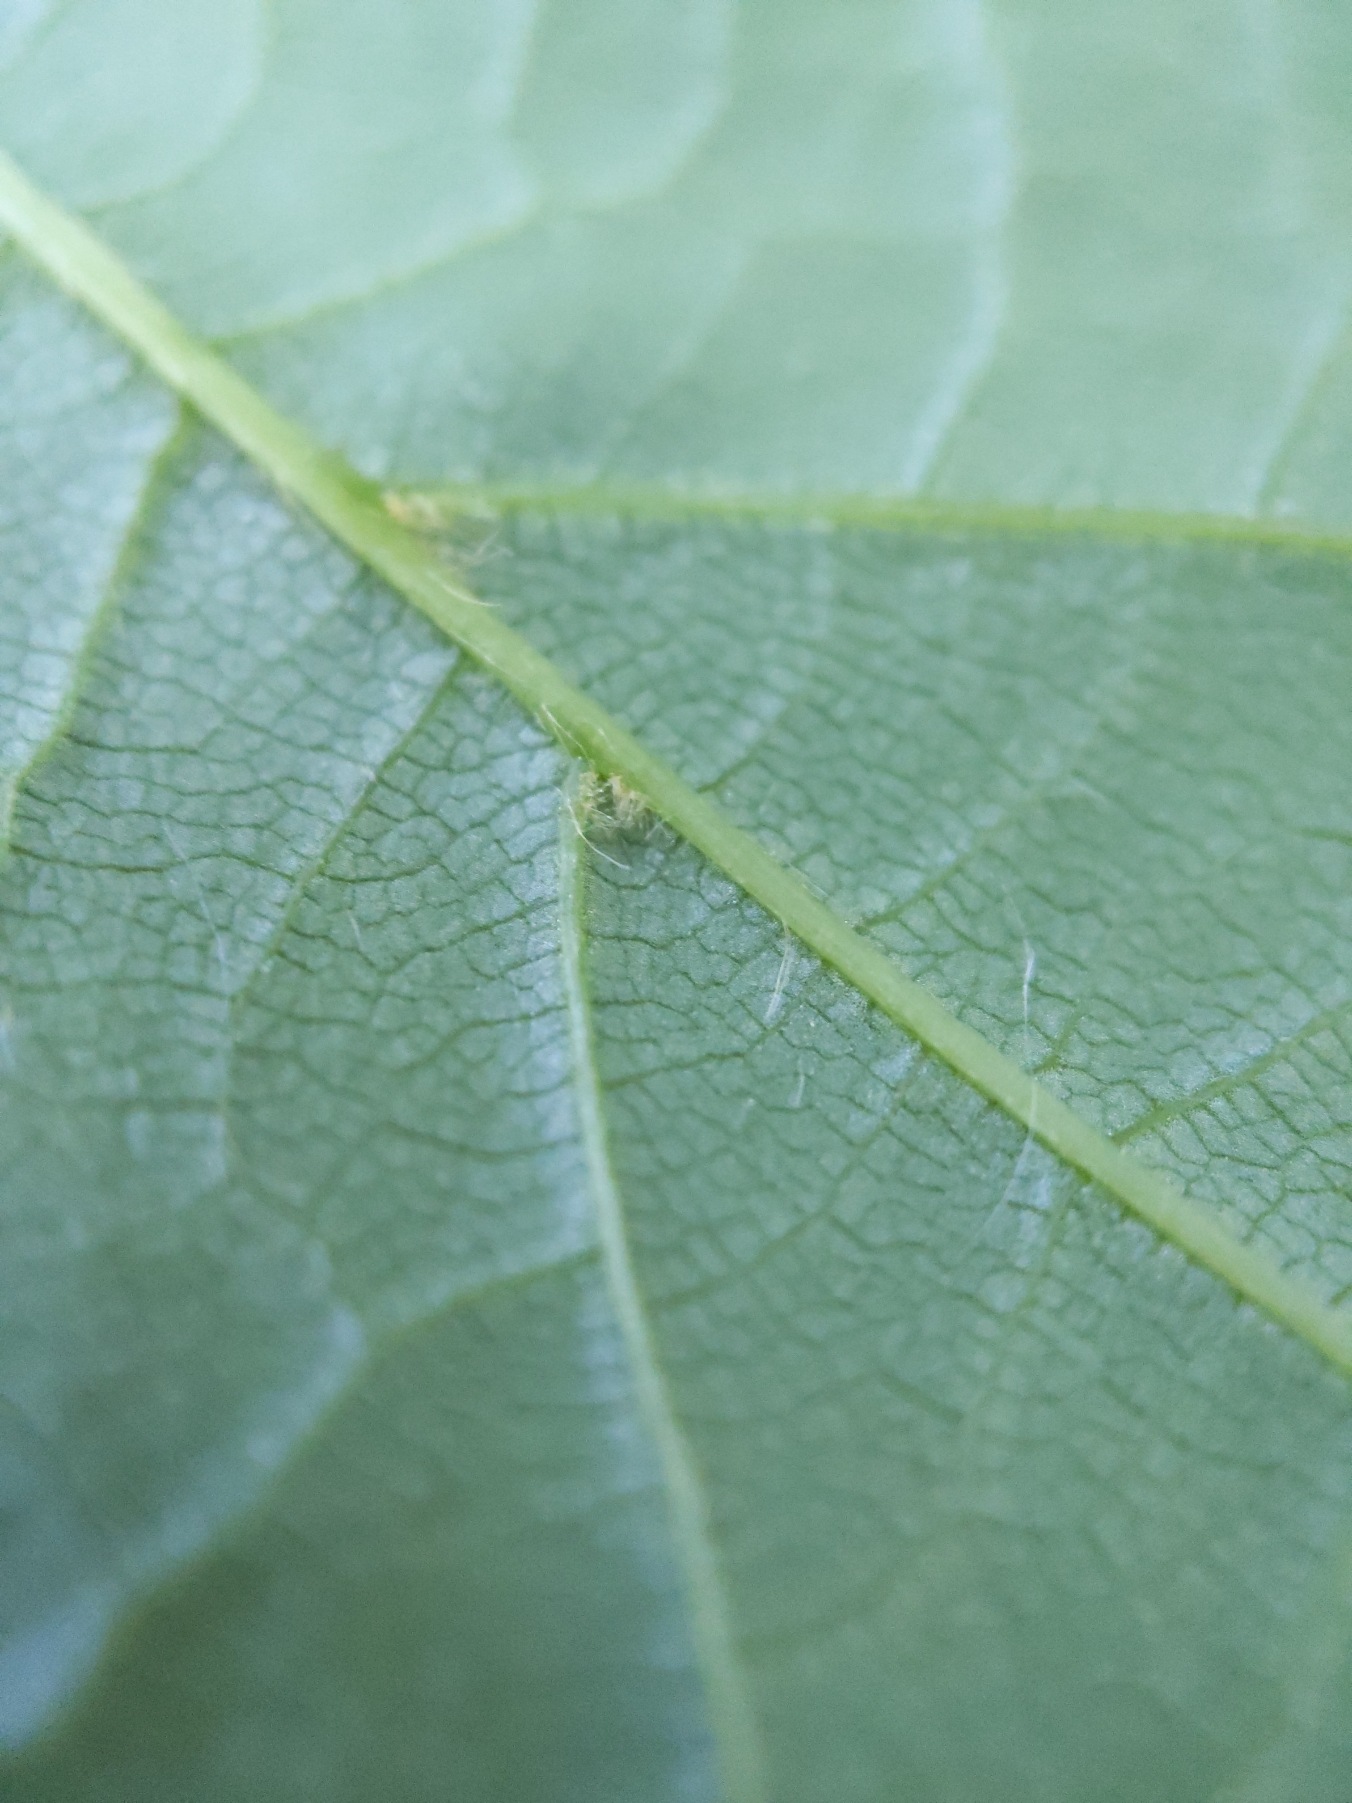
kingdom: Plantae
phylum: Tracheophyta
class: Magnoliopsida
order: Malvales
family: Malvaceae
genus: Tilia
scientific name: Tilia europaea
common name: Park-lind
